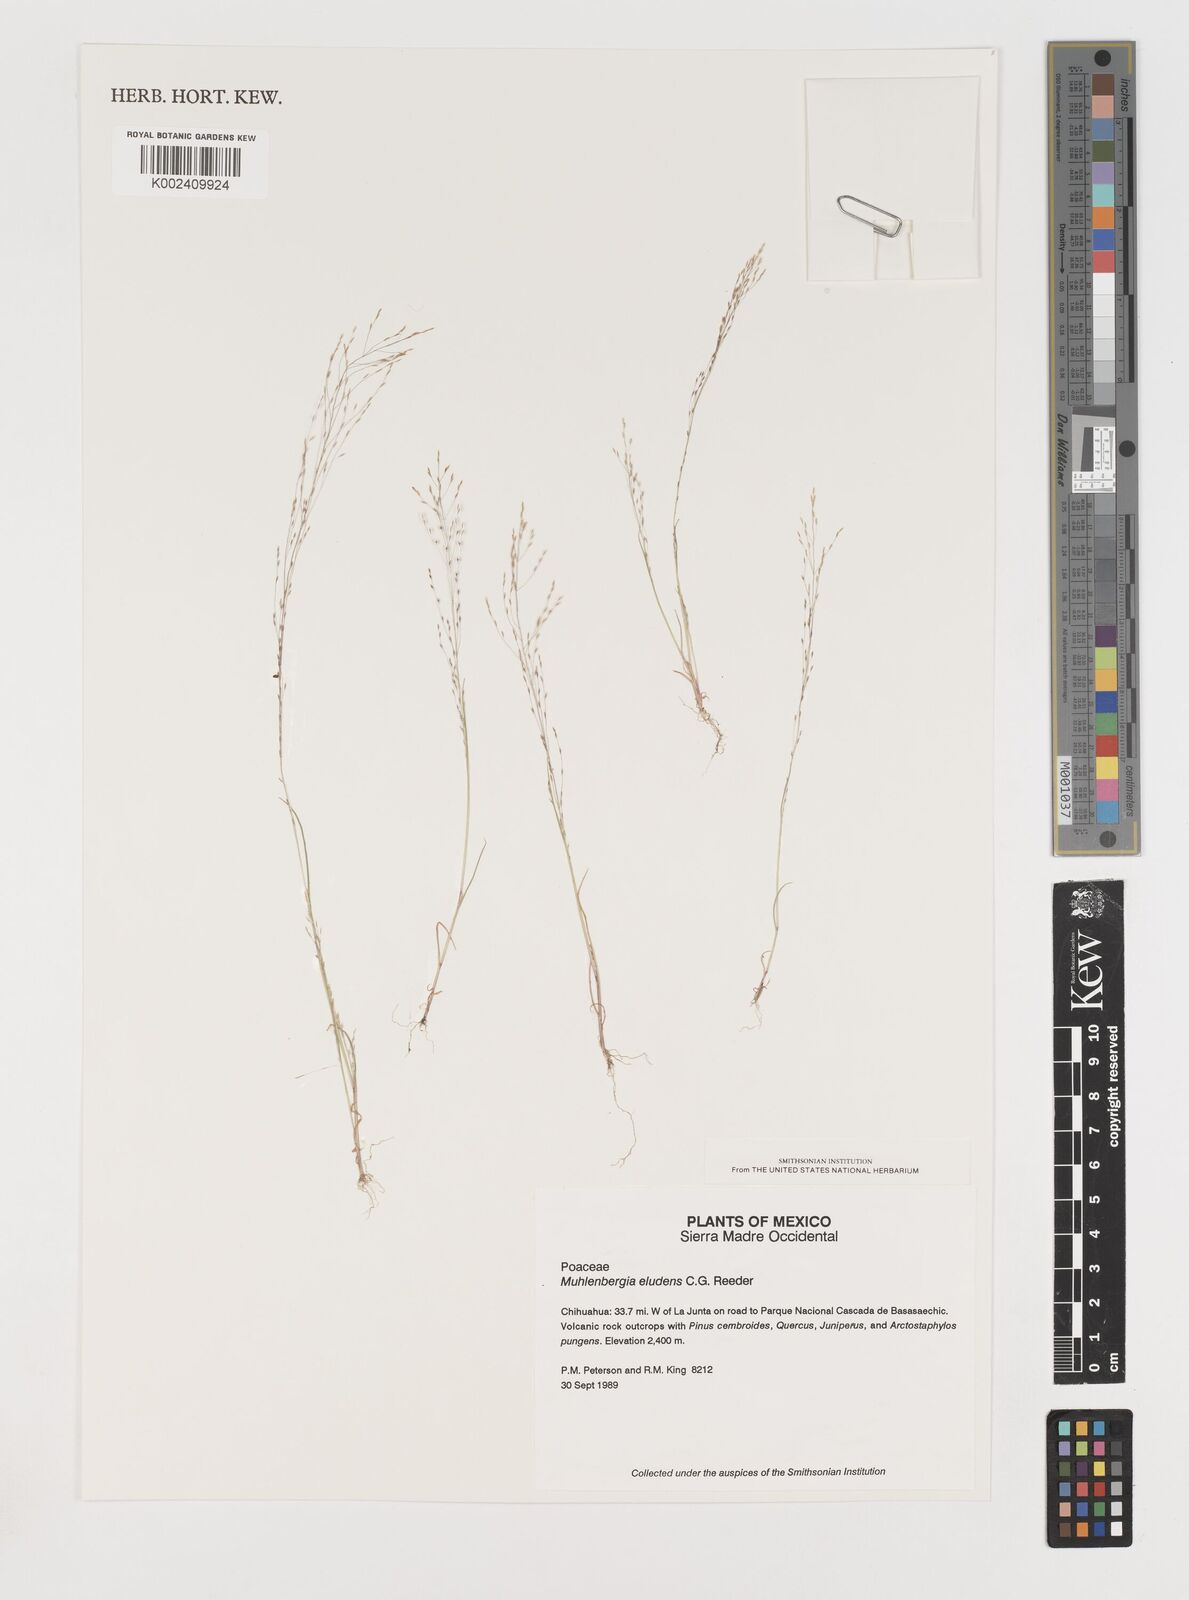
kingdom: Plantae
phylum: Tracheophyta
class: Liliopsida
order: Poales
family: Poaceae
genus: Muhlenbergia
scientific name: Muhlenbergia eludens
